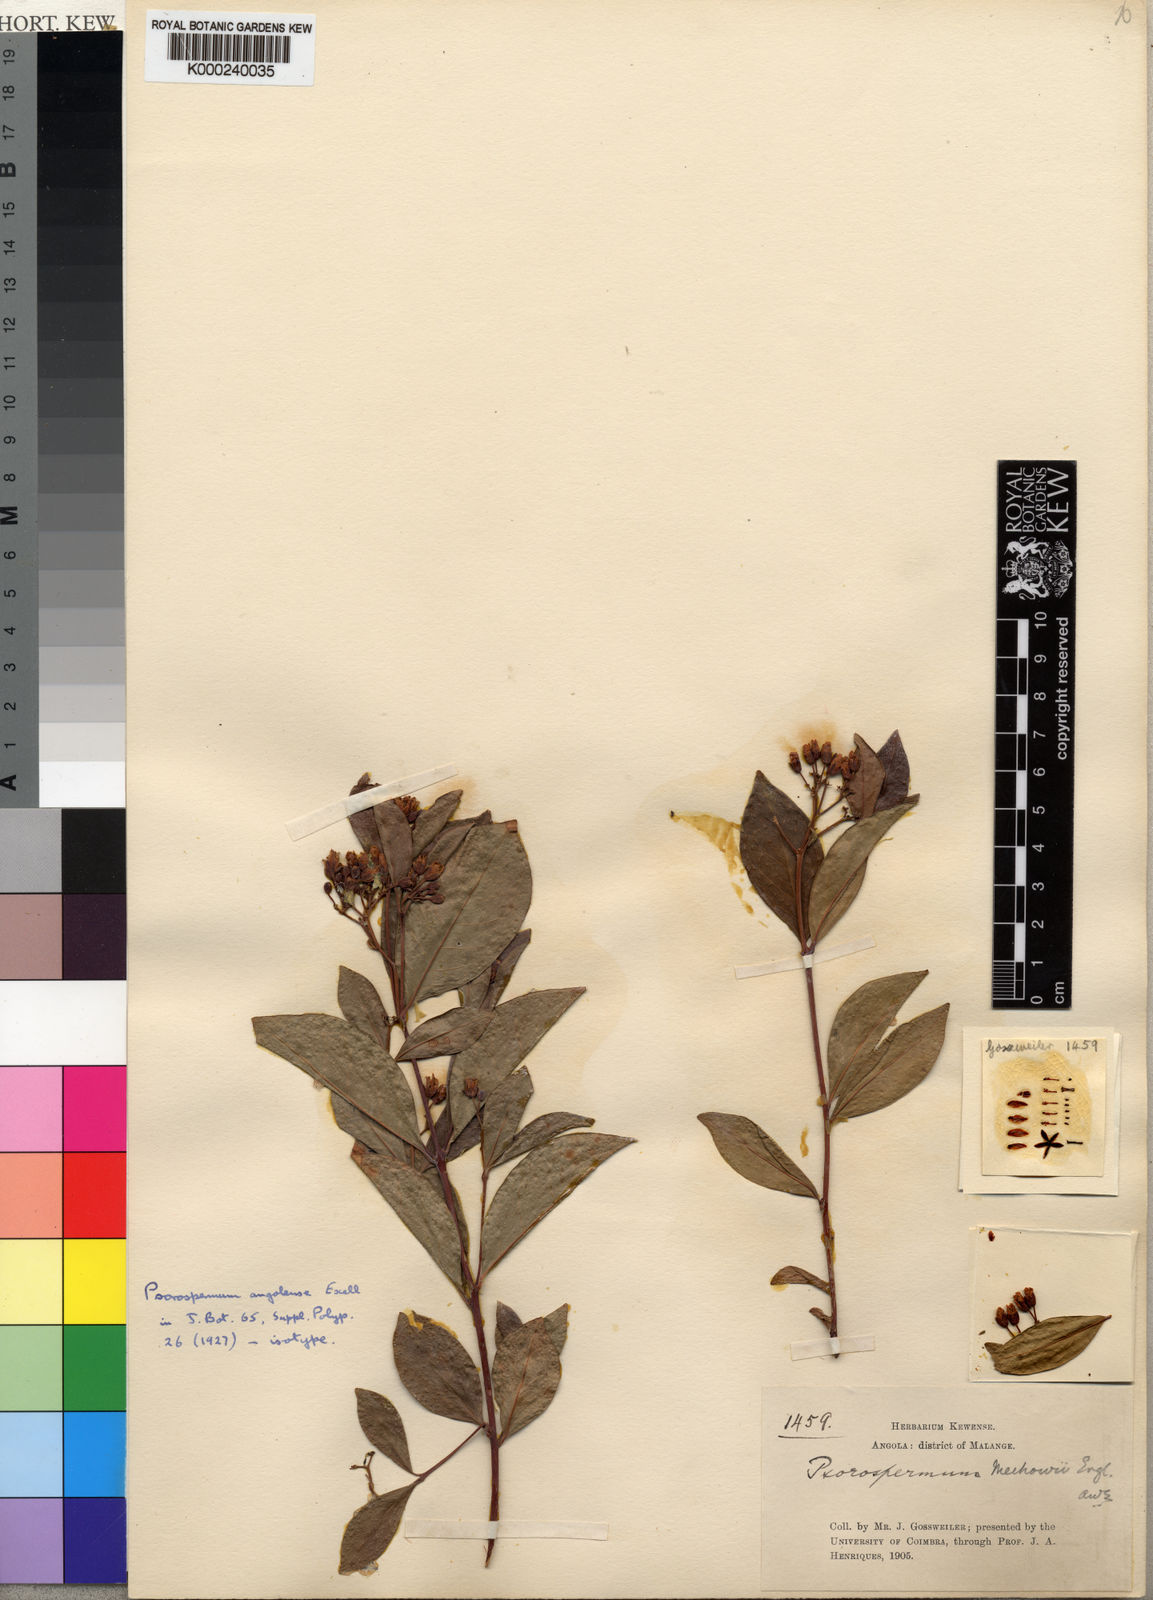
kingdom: Plantae
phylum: Tracheophyta
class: Magnoliopsida
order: Malpighiales
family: Hypericaceae
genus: Psorospermum
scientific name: Psorospermum mechowii
